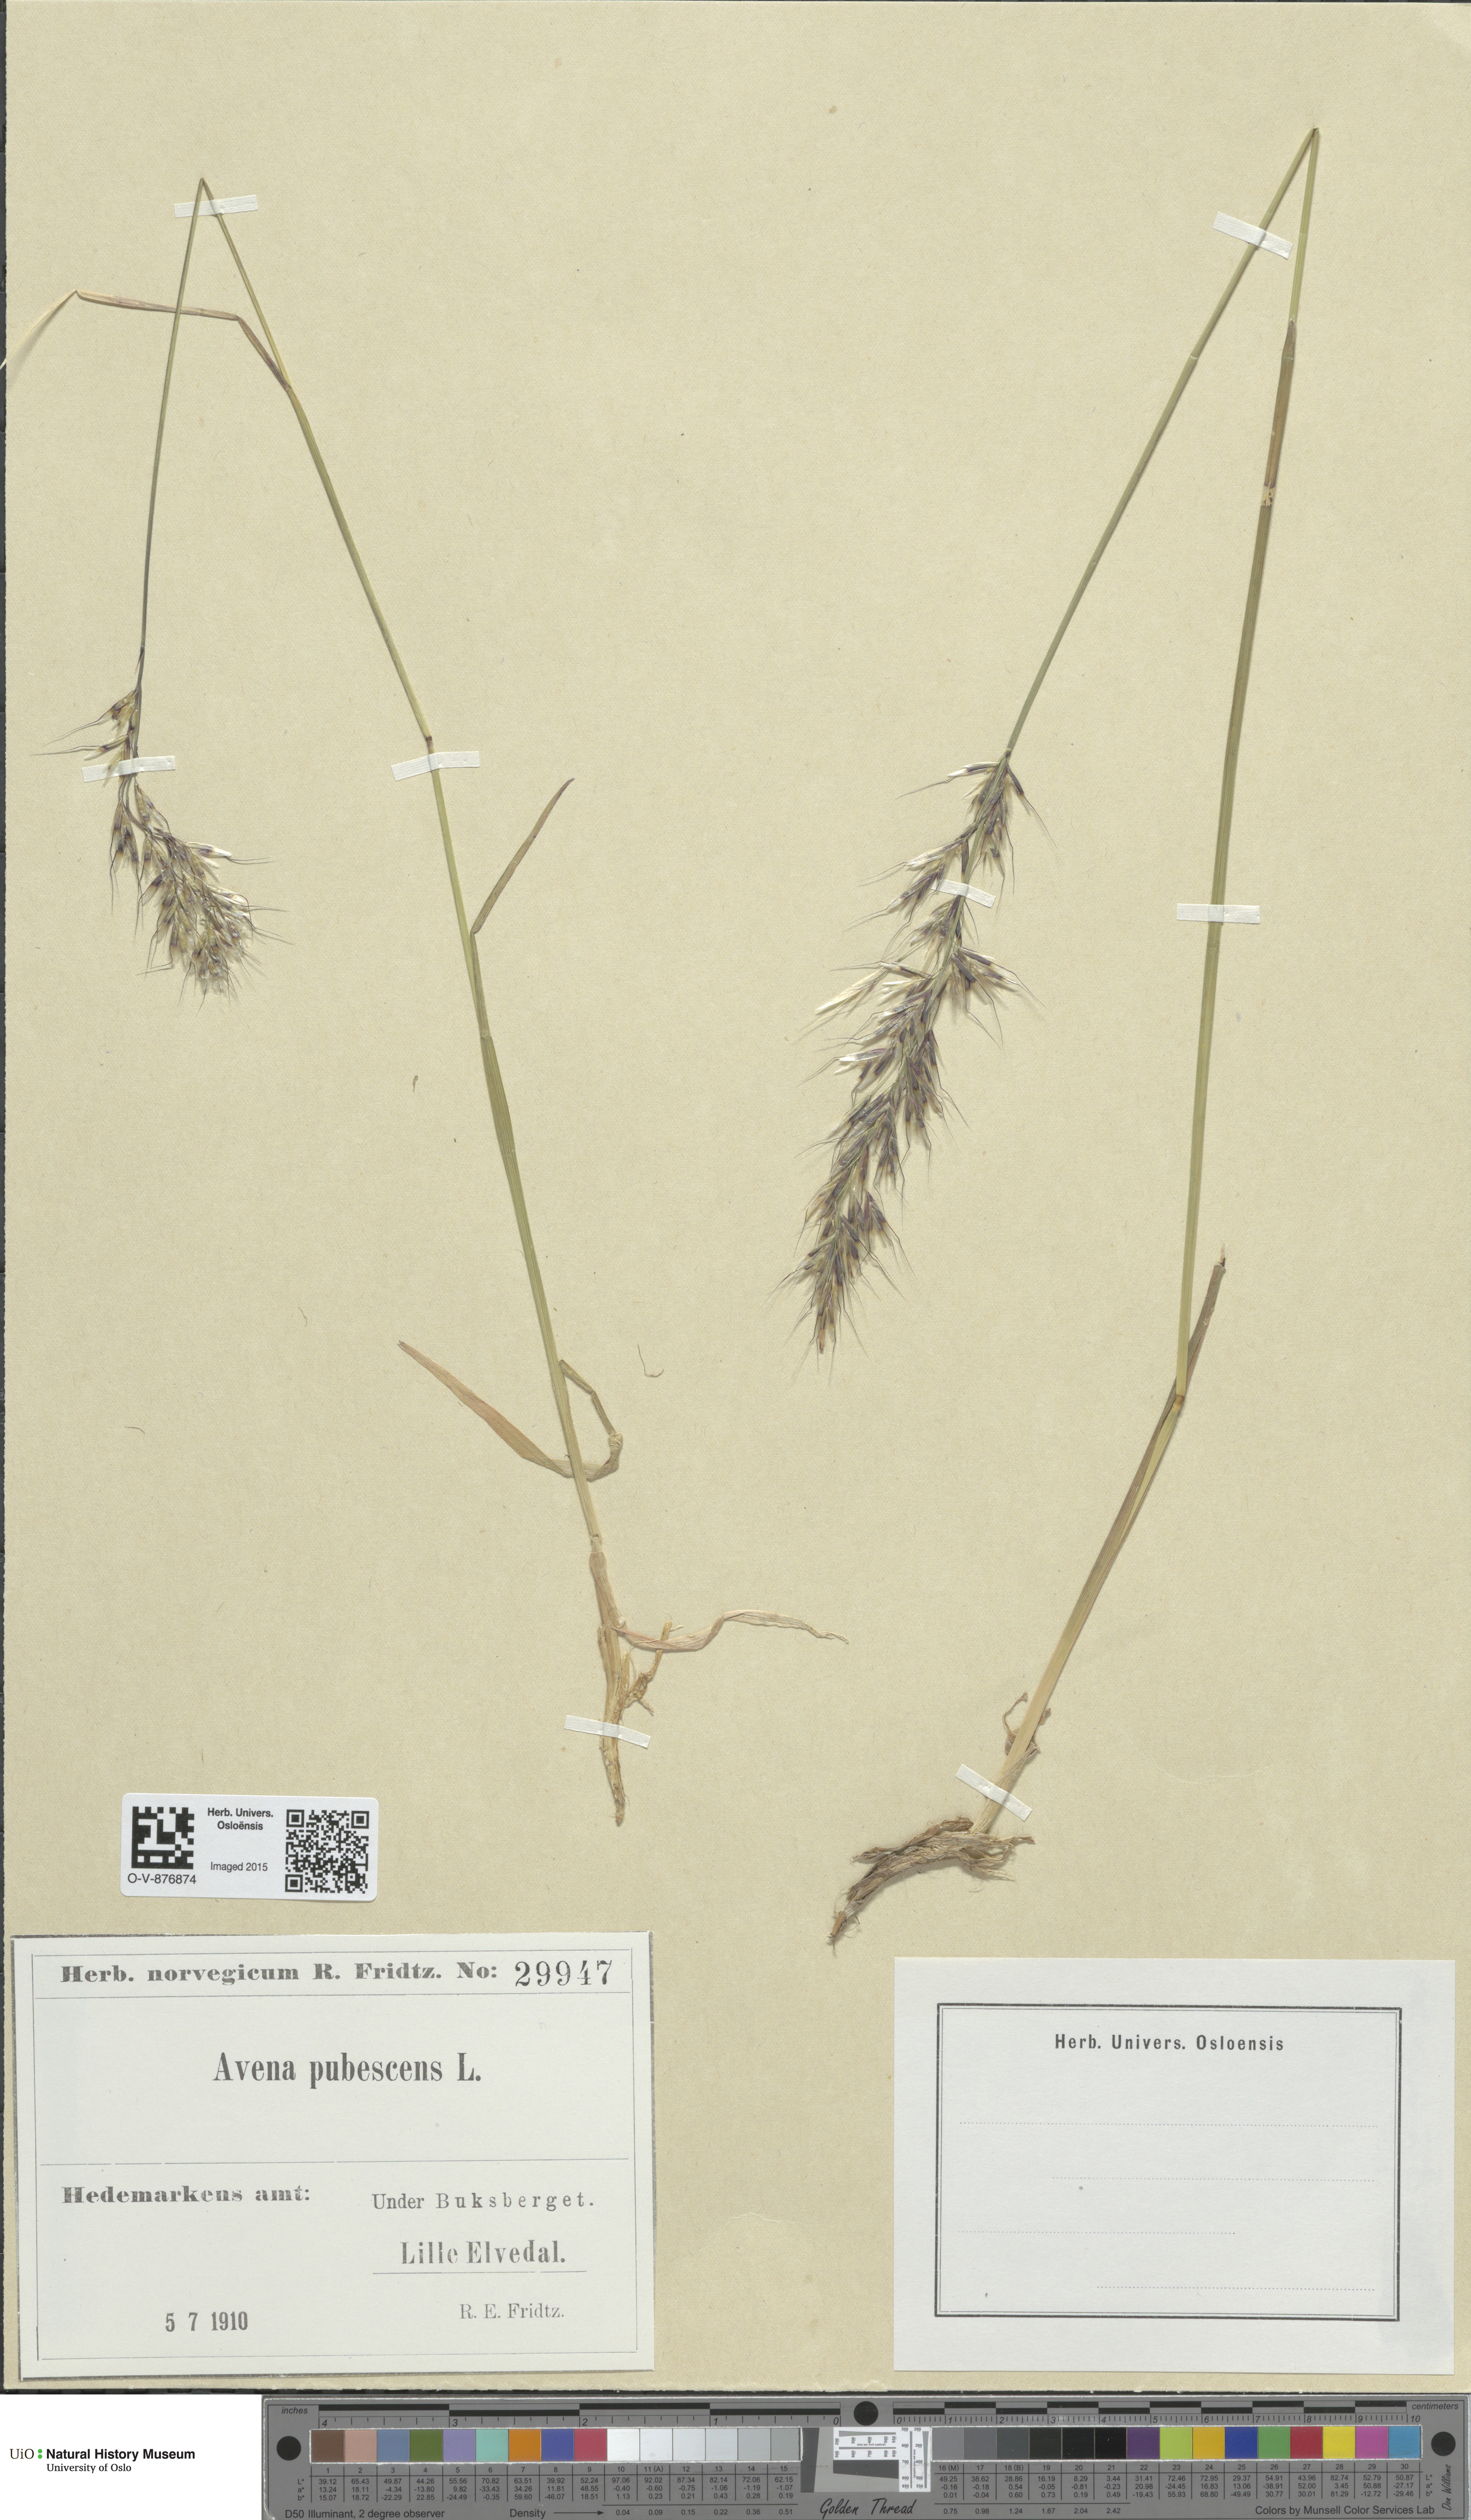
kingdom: Plantae
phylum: Tracheophyta
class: Liliopsida
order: Poales
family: Poaceae
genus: Avenula
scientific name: Avenula pubescens
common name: Downy alpine oatgrass
